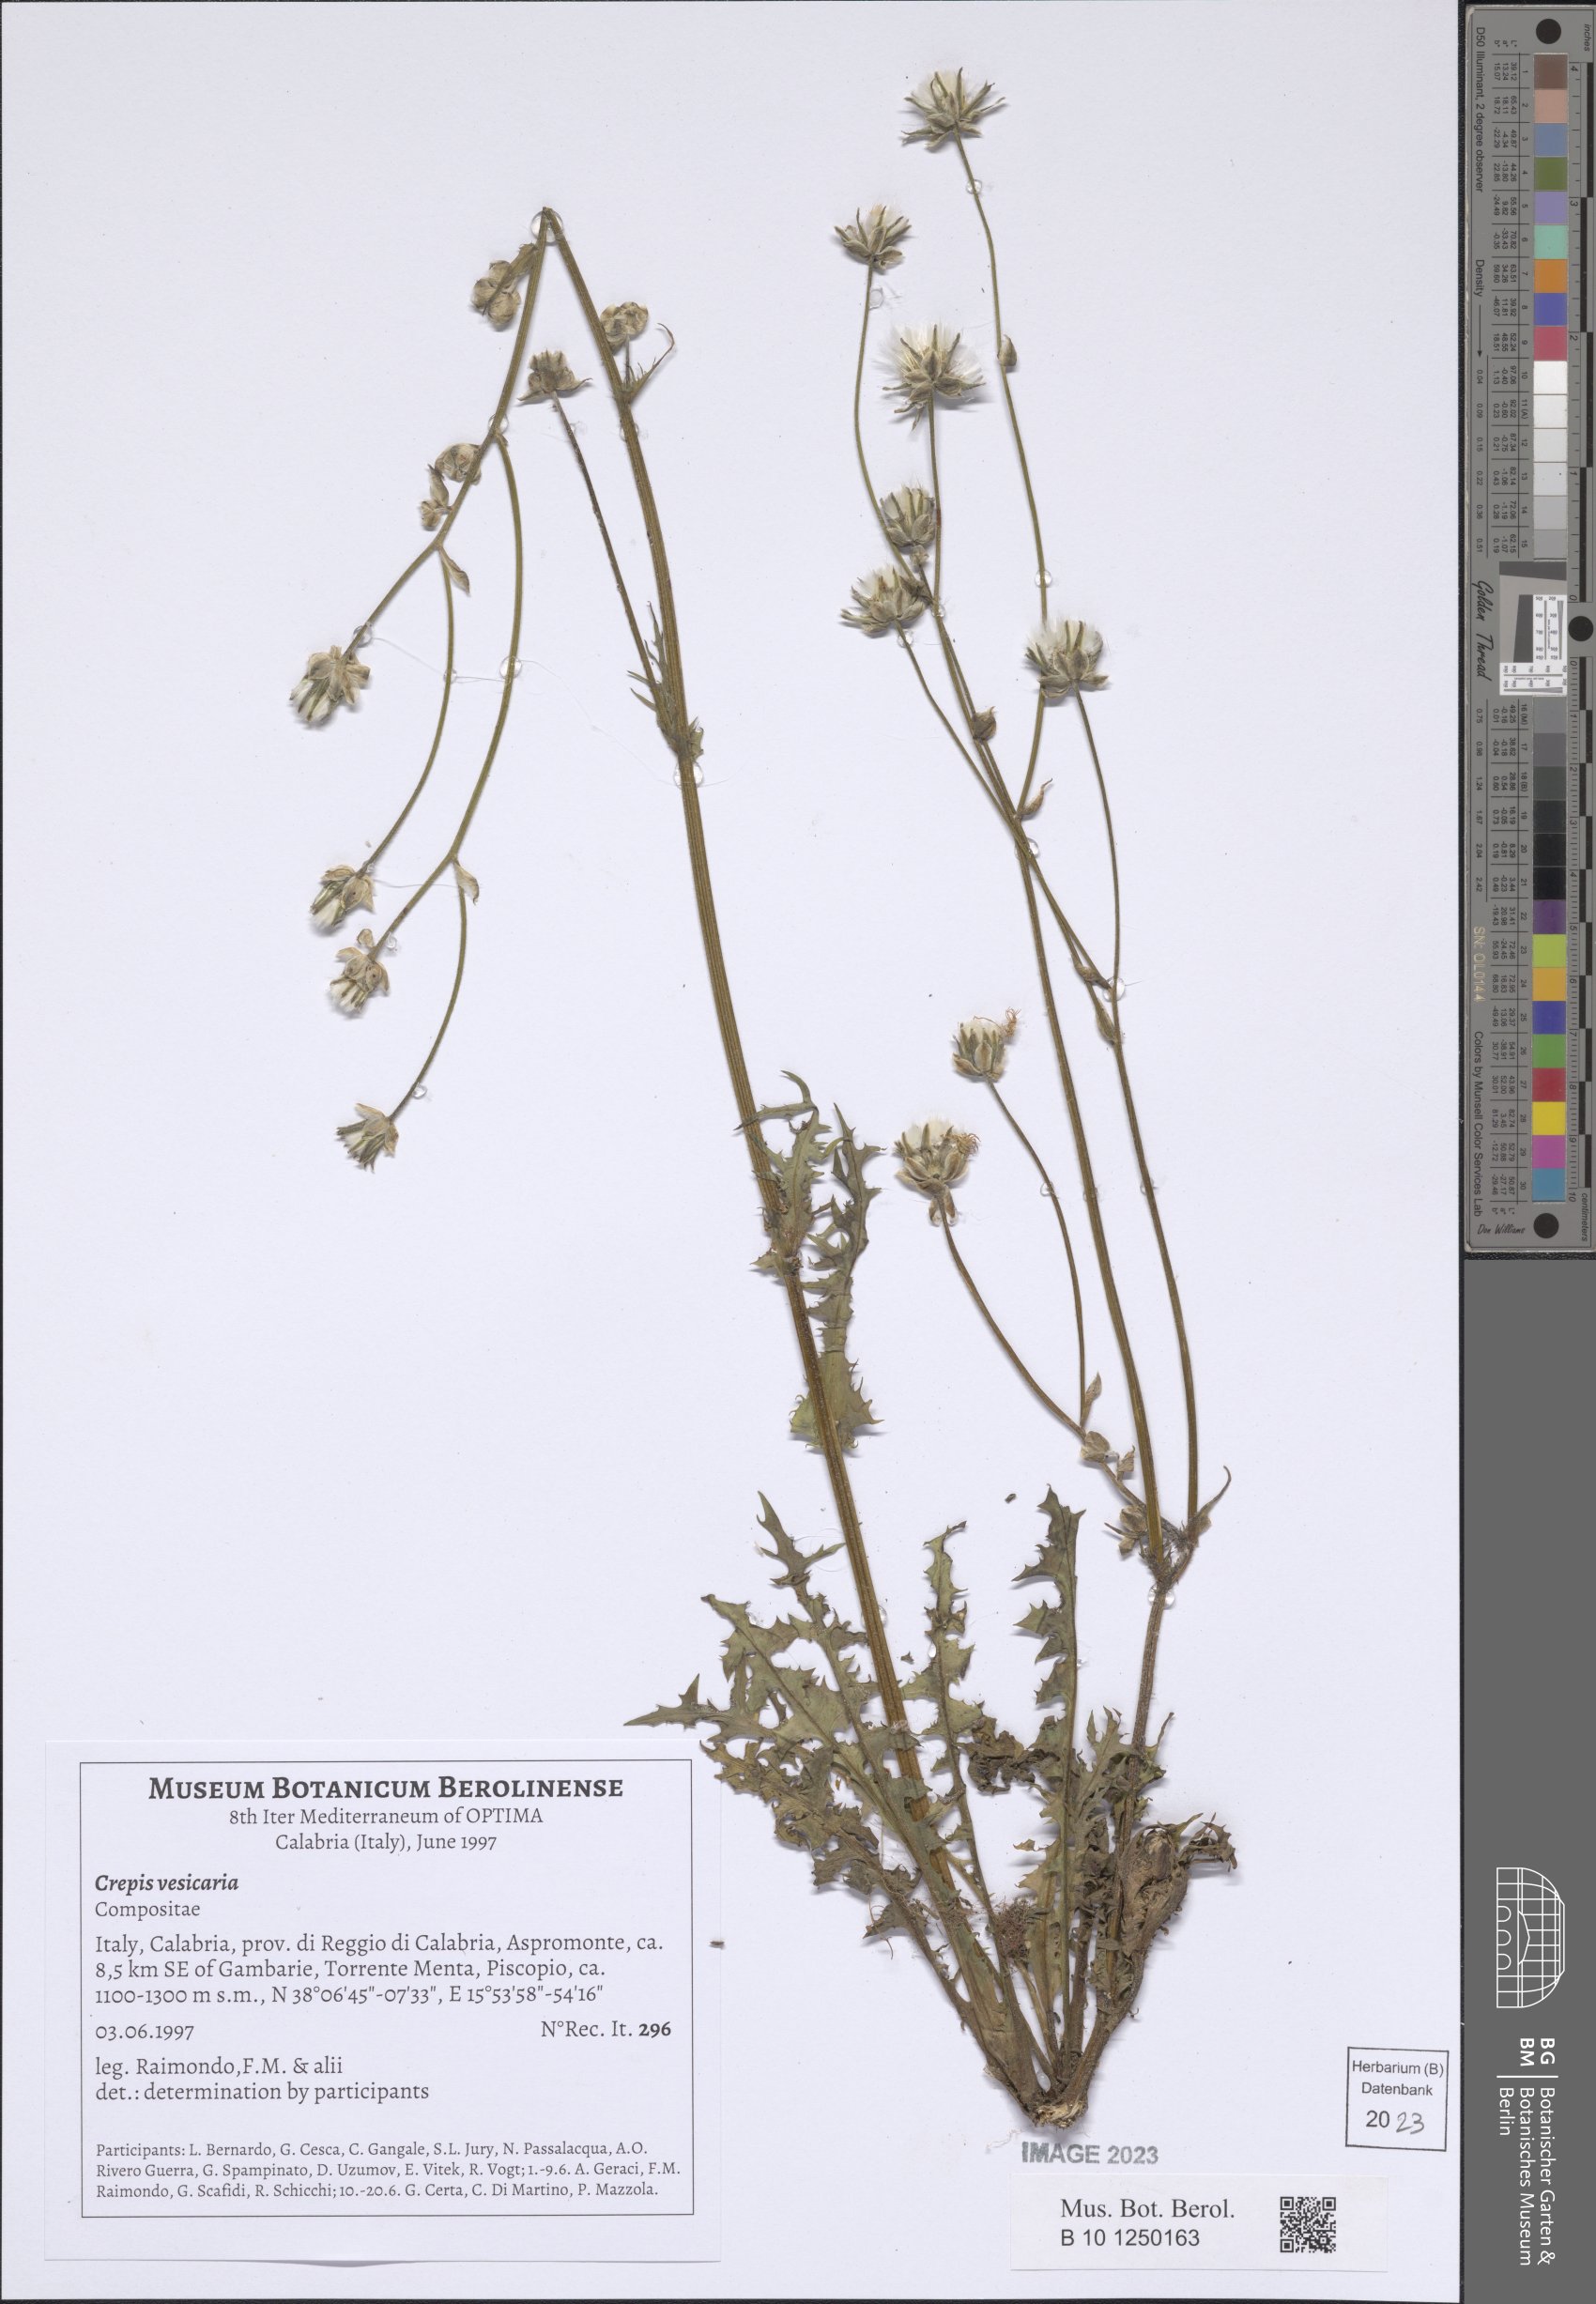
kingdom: Plantae
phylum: Tracheophyta
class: Magnoliopsida
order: Asterales
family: Asteraceae
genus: Crepis
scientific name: Crepis vesicaria
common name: Beaked hawksbeard
